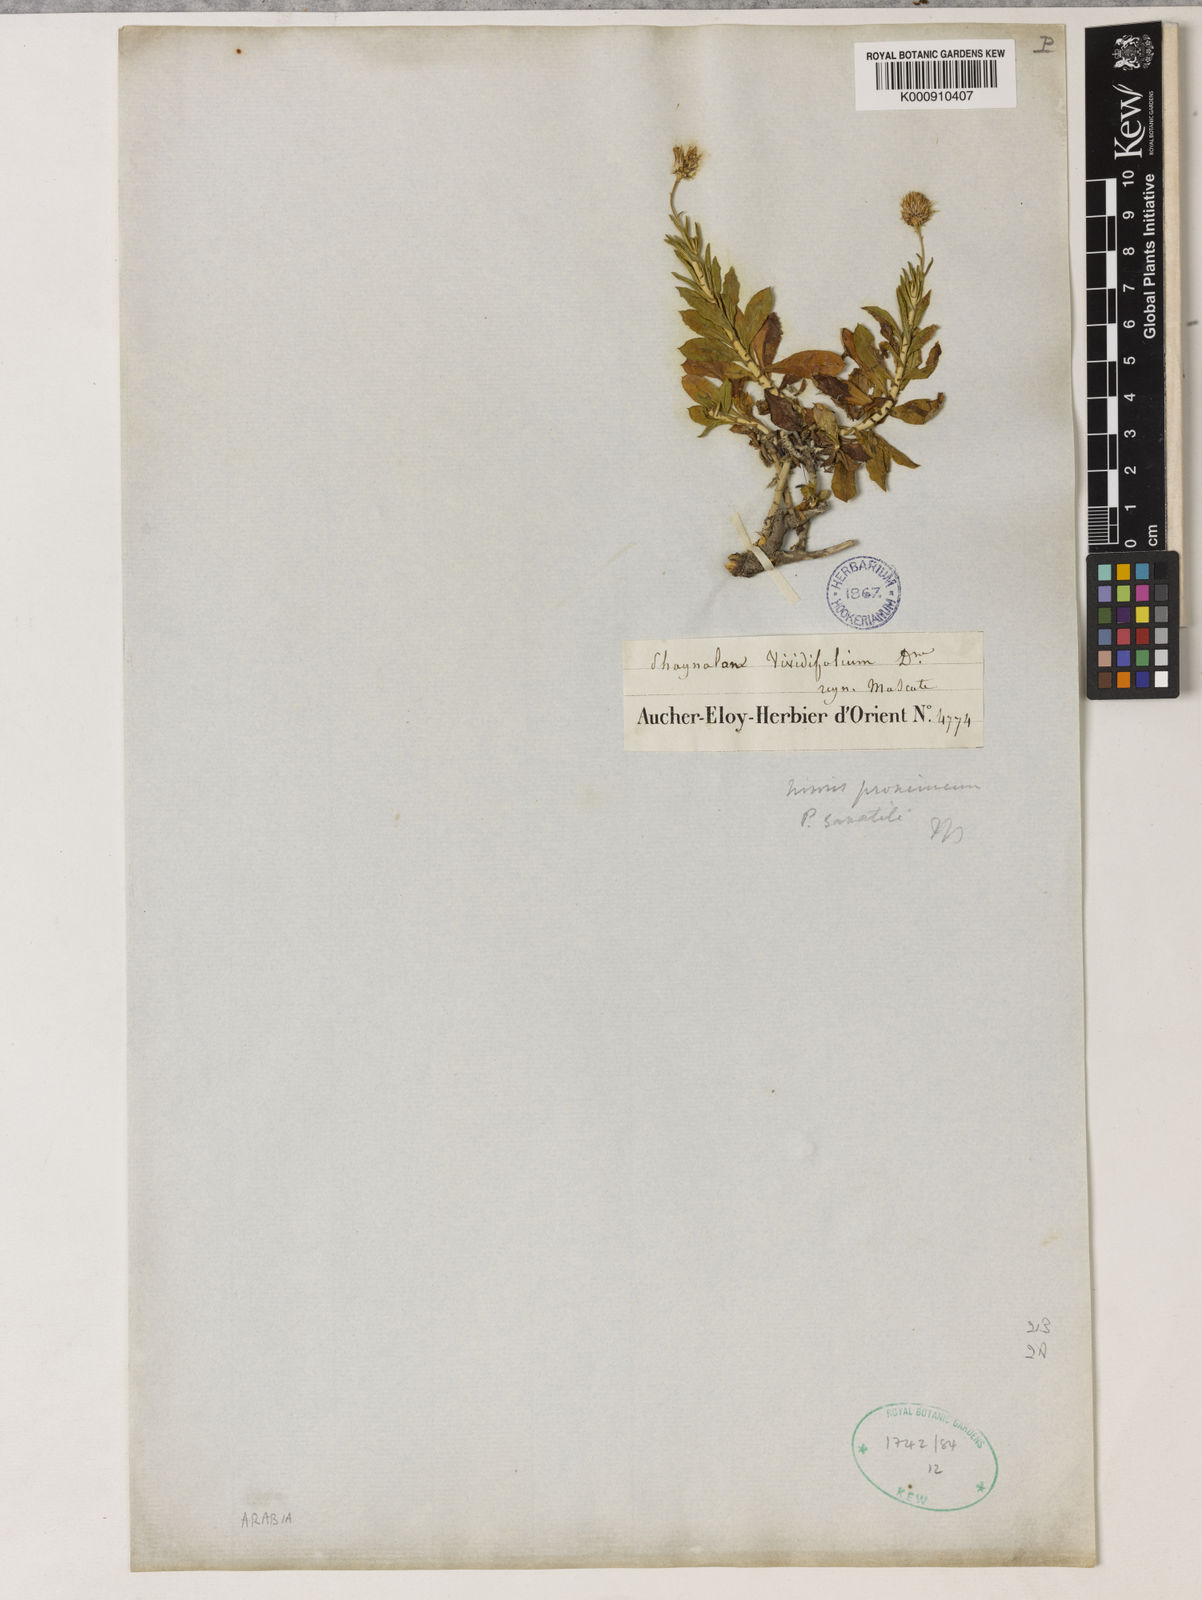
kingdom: Plantae
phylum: Tracheophyta
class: Magnoliopsida
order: Asterales
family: Asteraceae
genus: Phagnalon
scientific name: Phagnalon schweinfurthii
